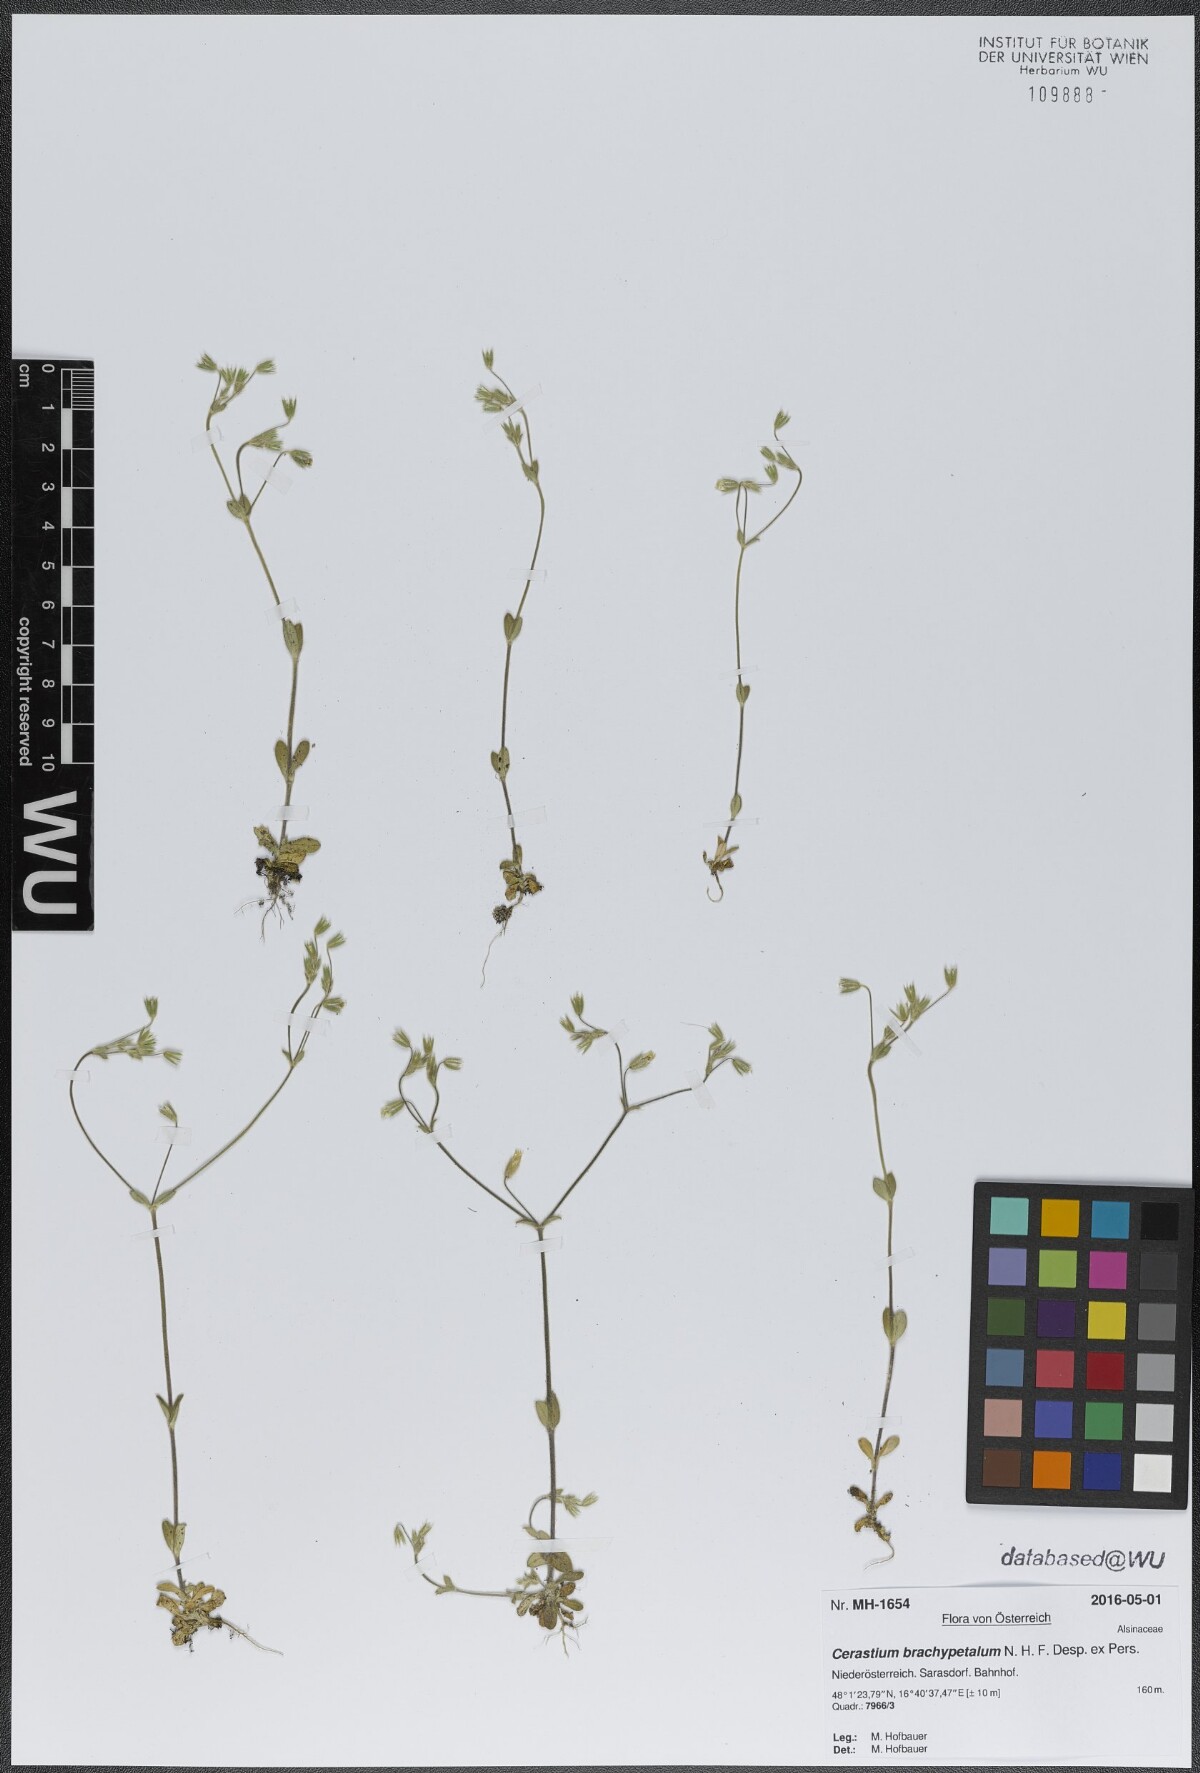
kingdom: Plantae
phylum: Tracheophyta
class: Magnoliopsida
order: Caryophyllales
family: Caryophyllaceae
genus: Cerastium
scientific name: Cerastium brachypetalum
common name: Grey mouse-ear
